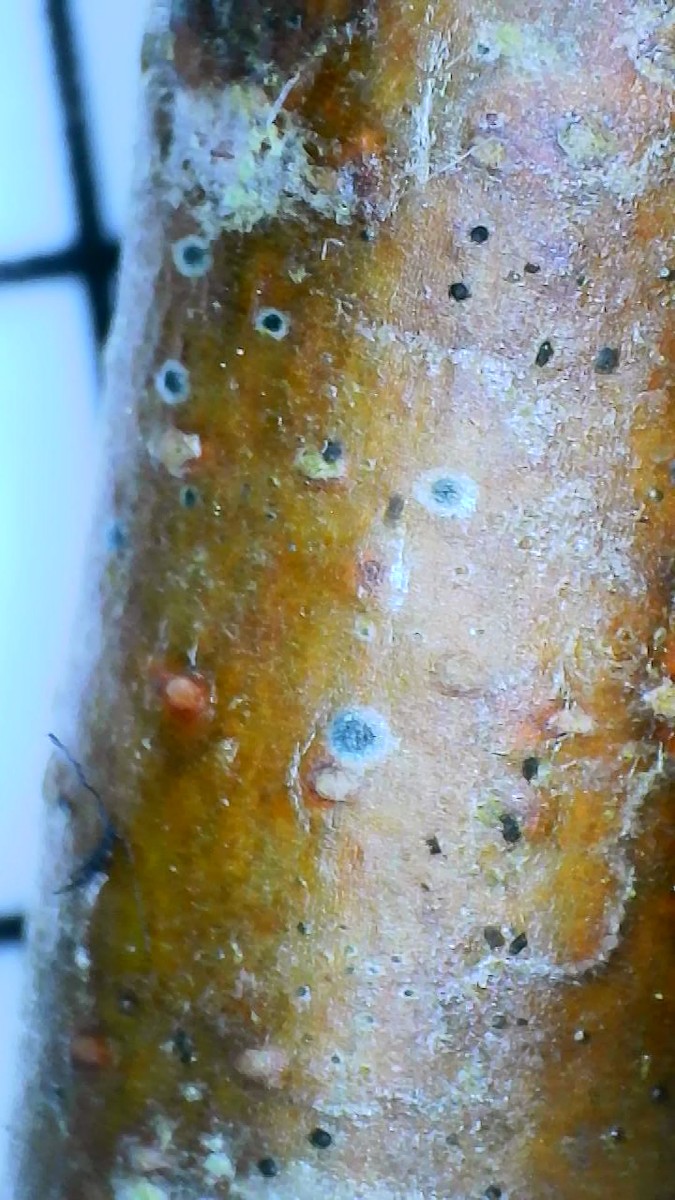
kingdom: Fungi
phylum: Ascomycota
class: Dothideomycetes
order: Dothideales
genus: Mycoglaena
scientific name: Mycoglaena myricae
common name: liden porsprik
